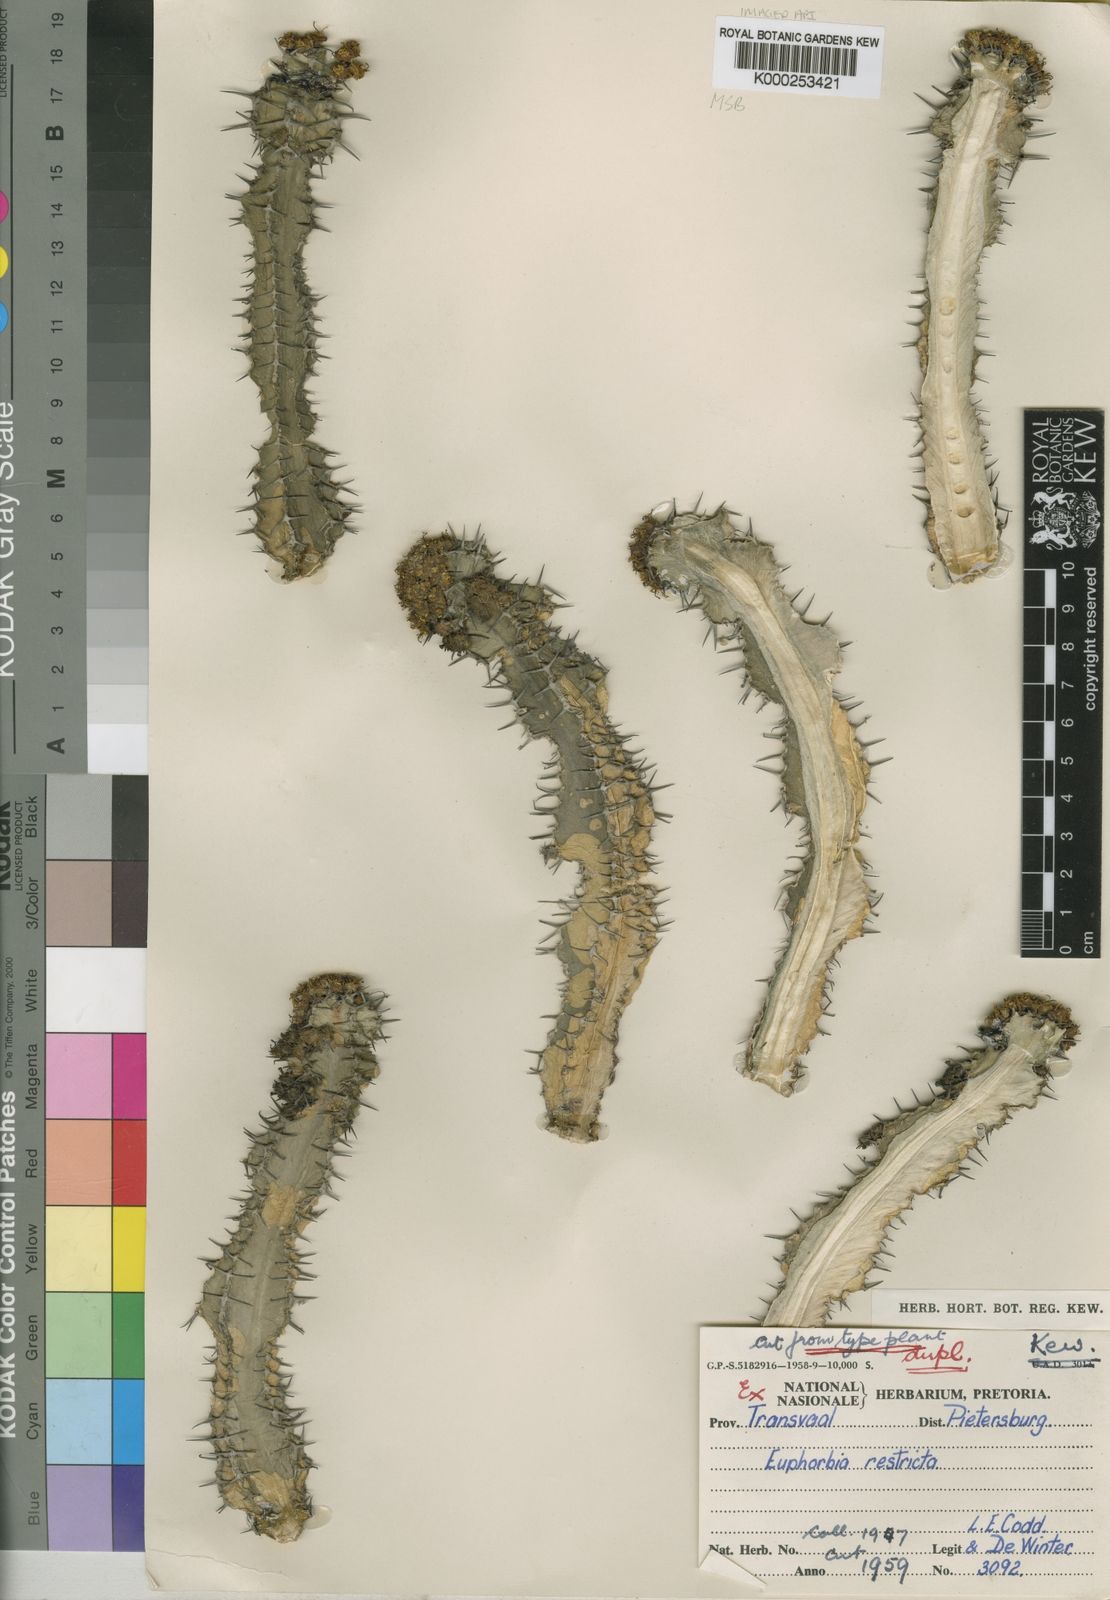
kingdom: Plantae
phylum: Tracheophyta
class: Magnoliopsida
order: Malpighiales
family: Euphorbiaceae
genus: Euphorbia
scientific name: Euphorbia restricta
